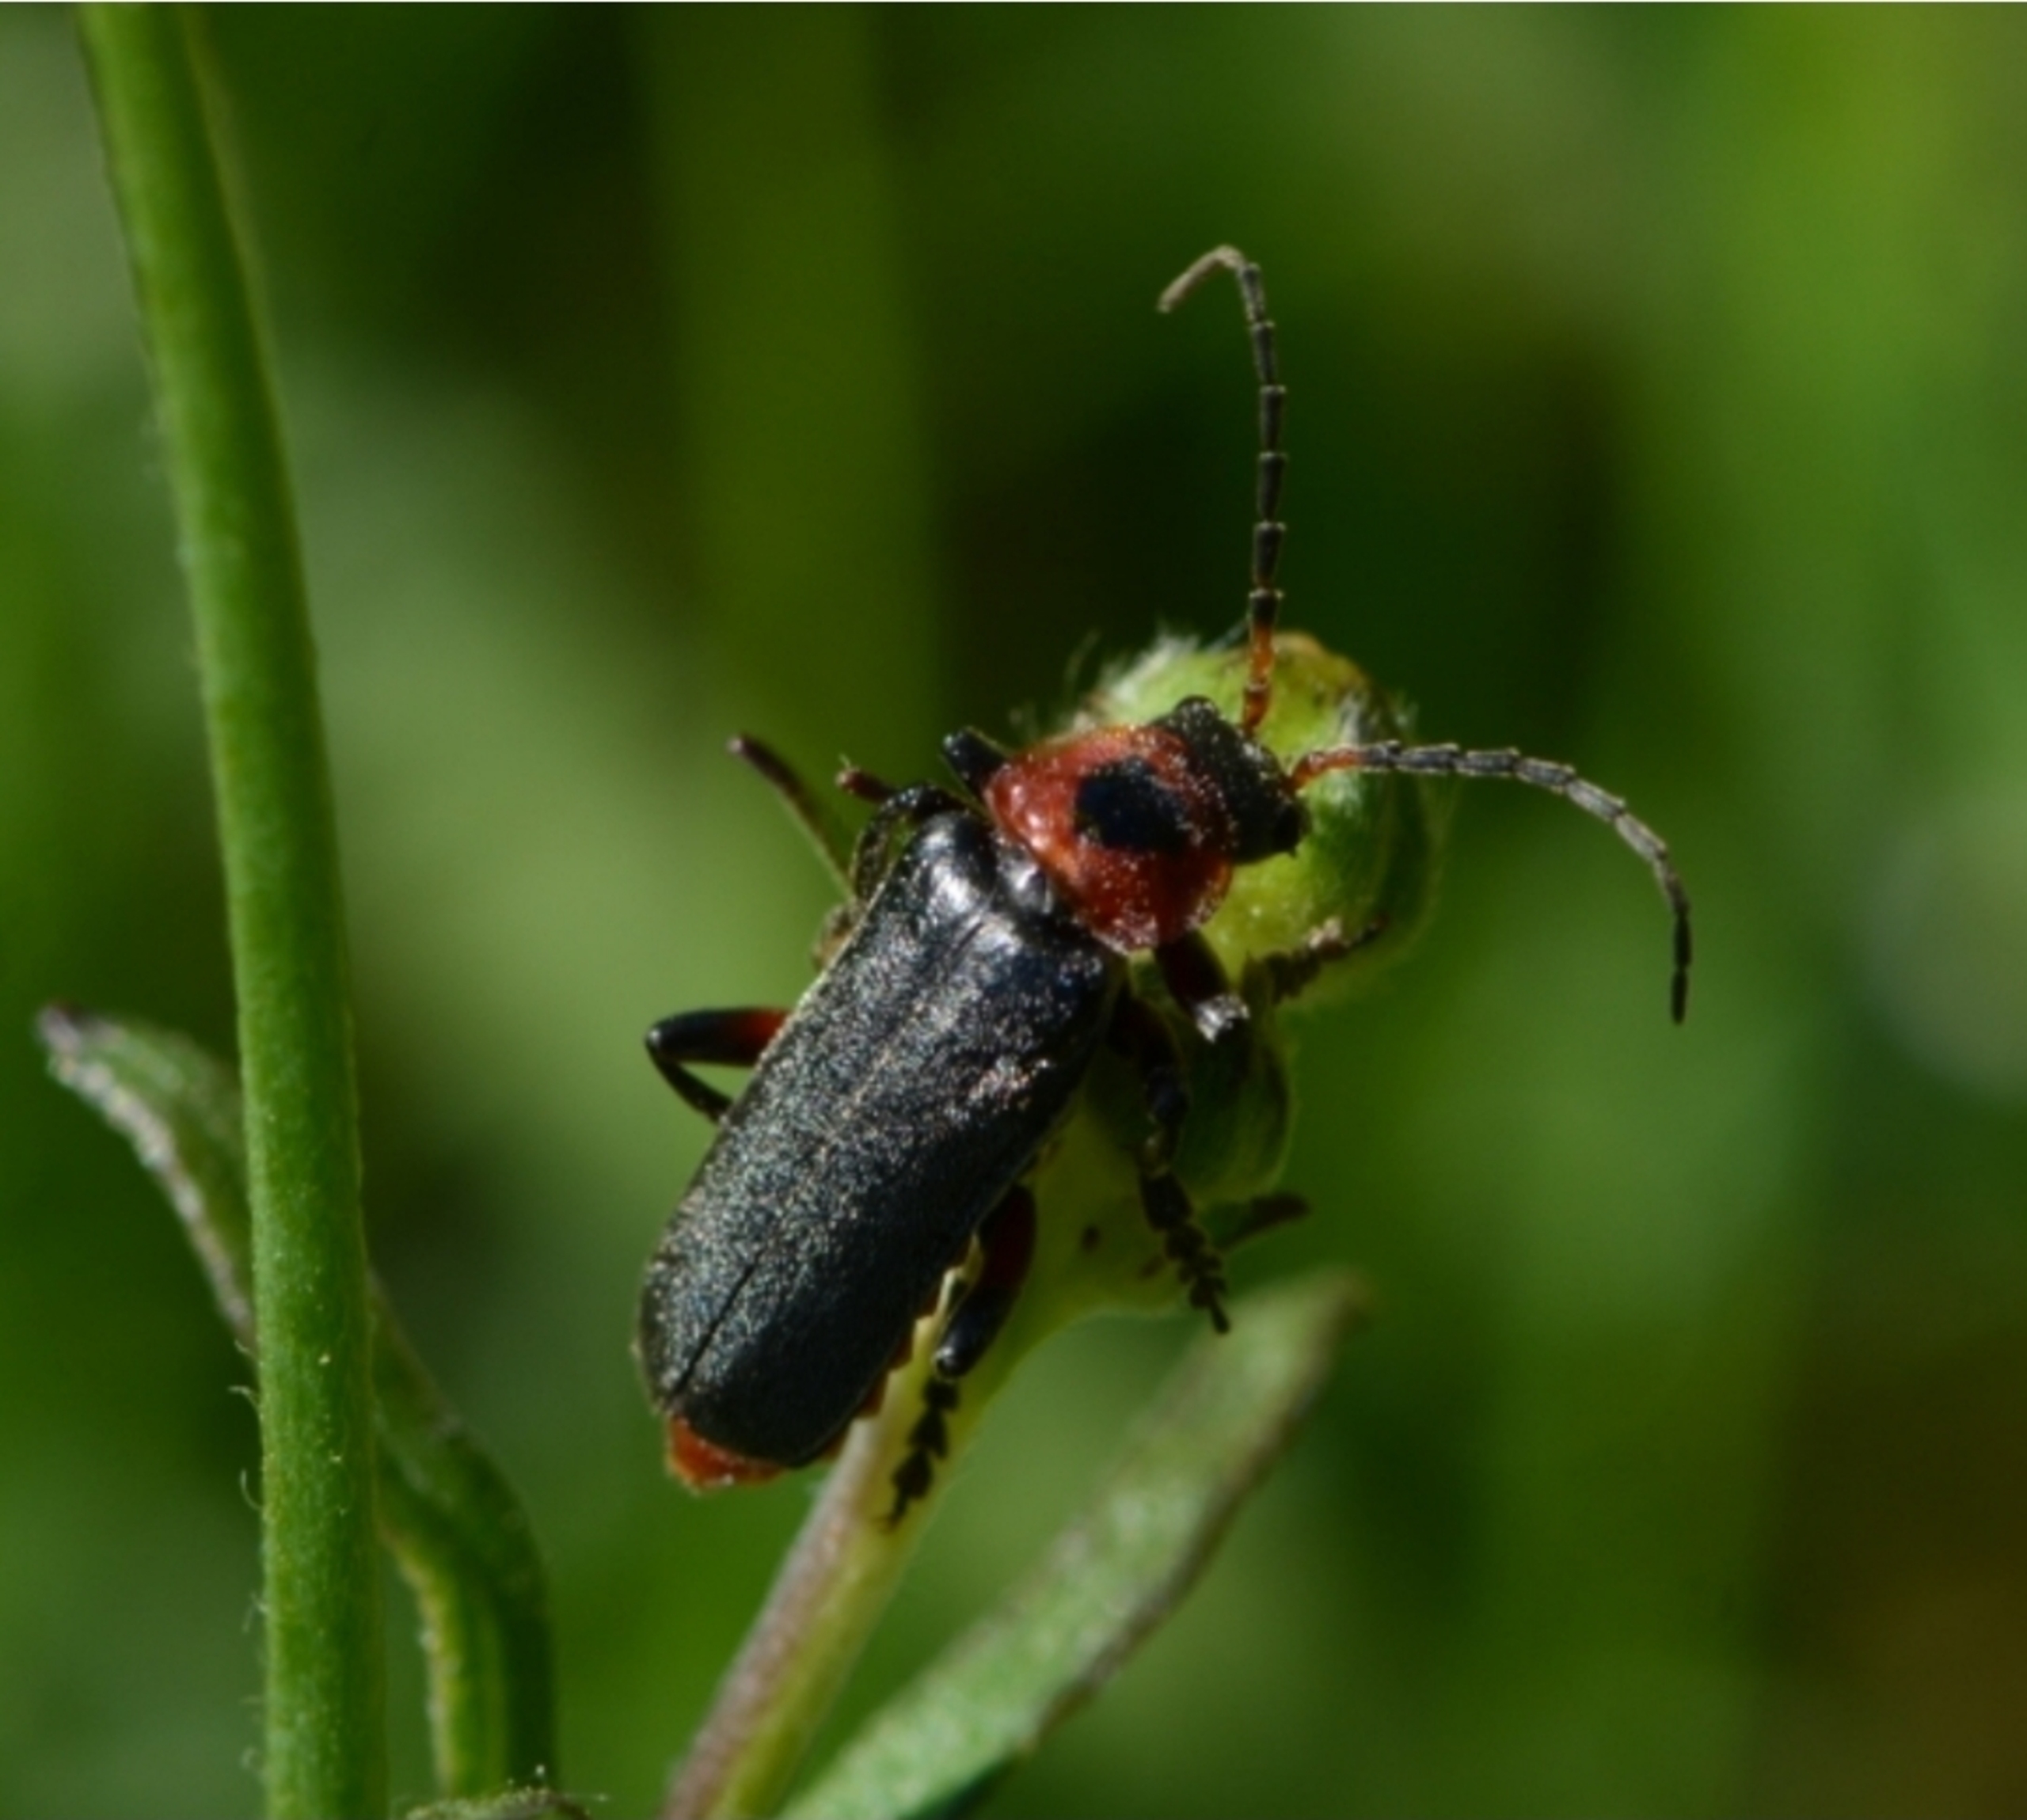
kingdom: Animalia
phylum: Arthropoda
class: Insecta
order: Coleoptera
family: Cantharidae
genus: Cantharis
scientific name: Cantharis rustica
